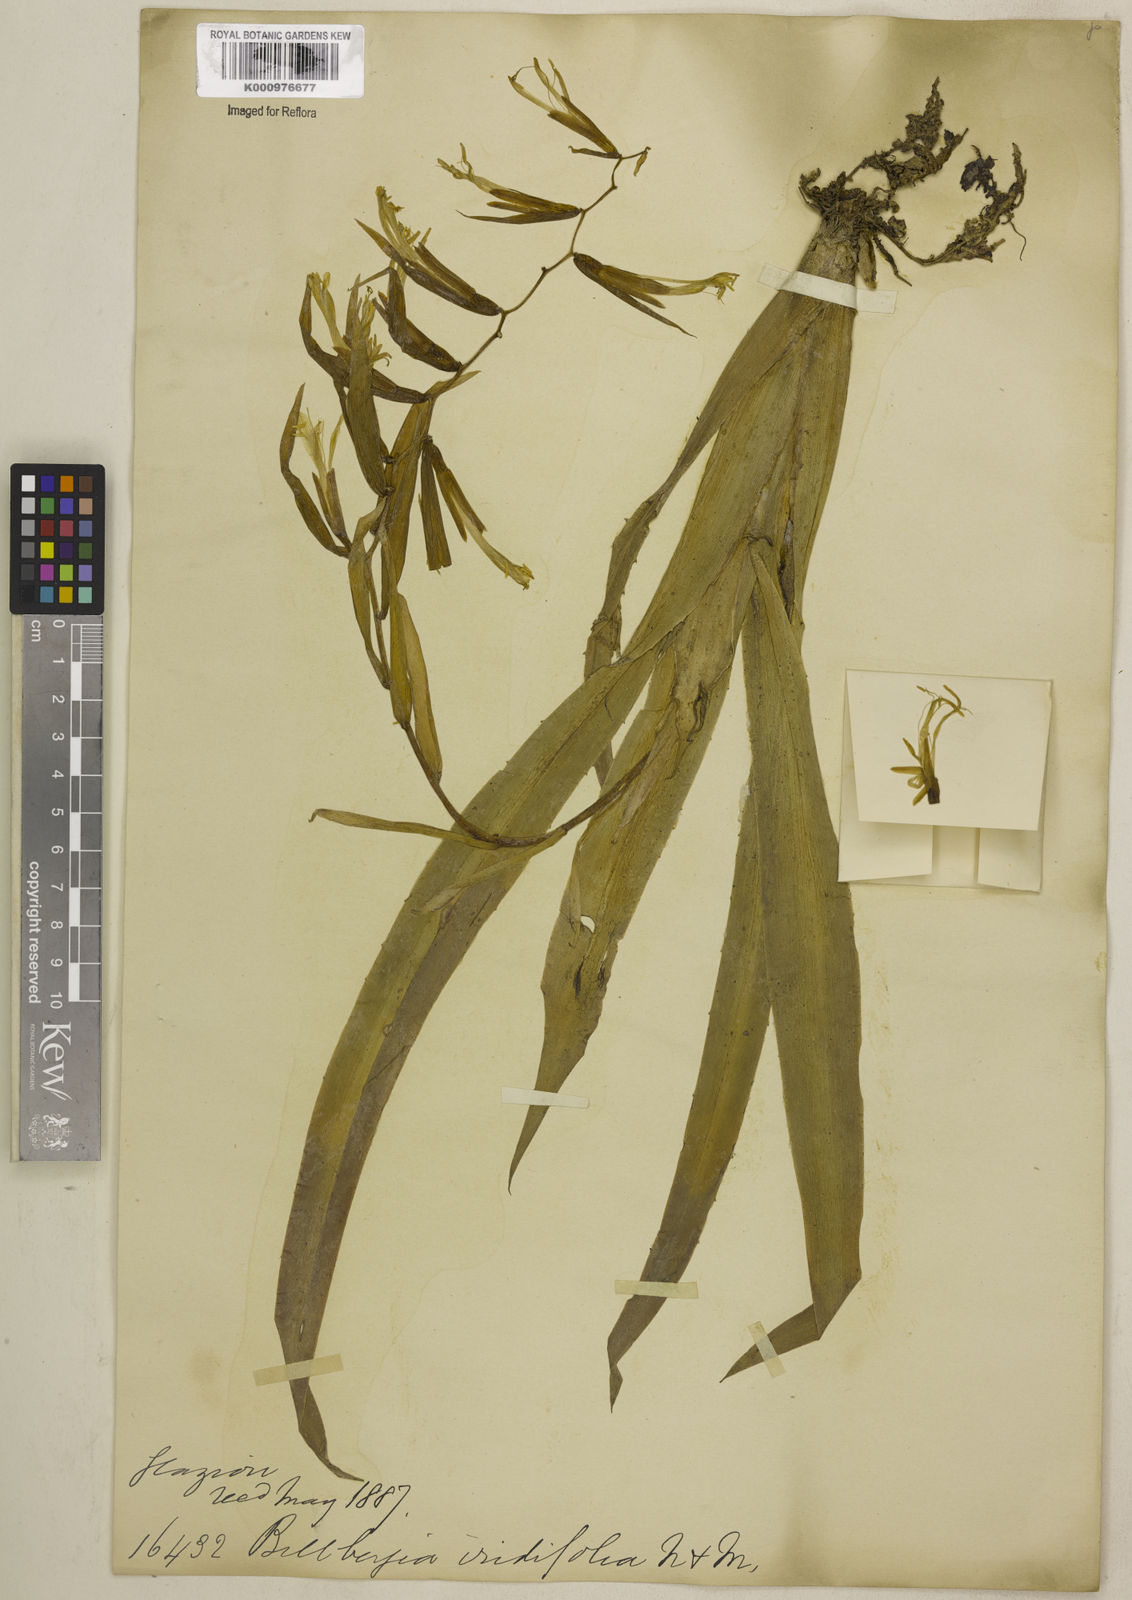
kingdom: Plantae
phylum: Tracheophyta
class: Liliopsida
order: Poales
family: Bromeliaceae
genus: Billbergia
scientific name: Billbergia iridifolia
